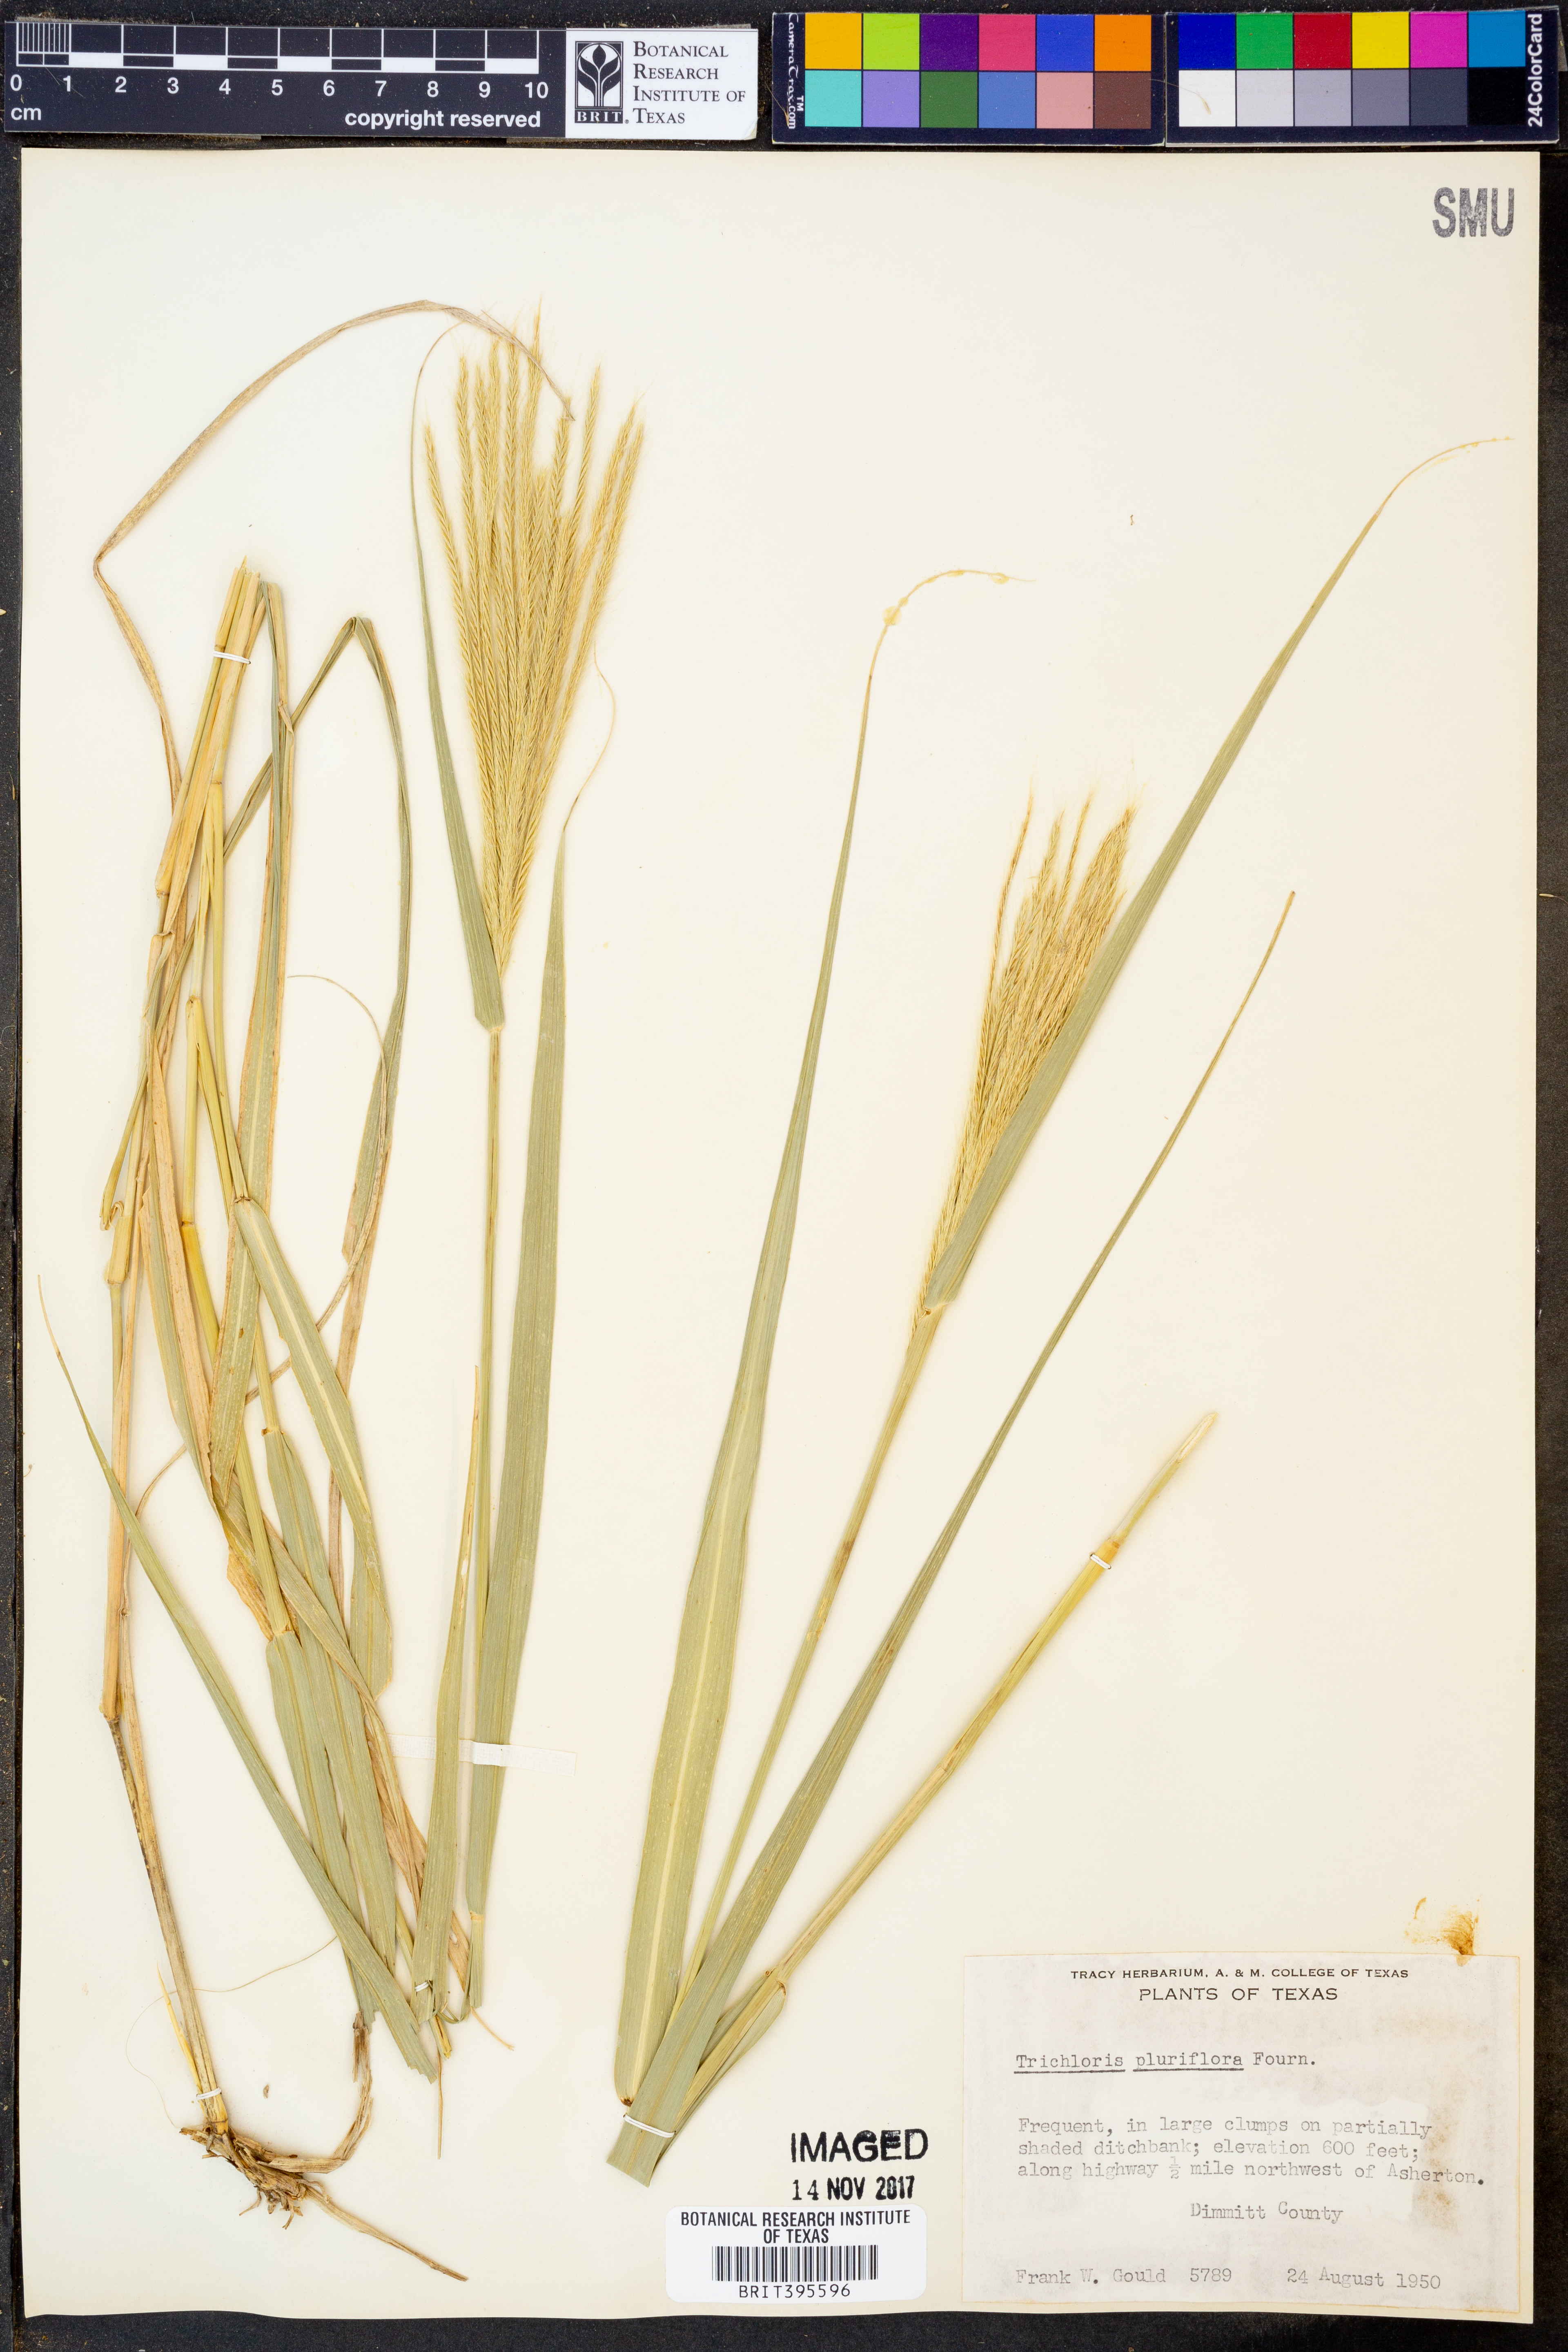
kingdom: Plantae
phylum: Tracheophyta
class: Liliopsida
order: Poales
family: Poaceae
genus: Leptochloa
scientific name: Leptochloa pluriflora
